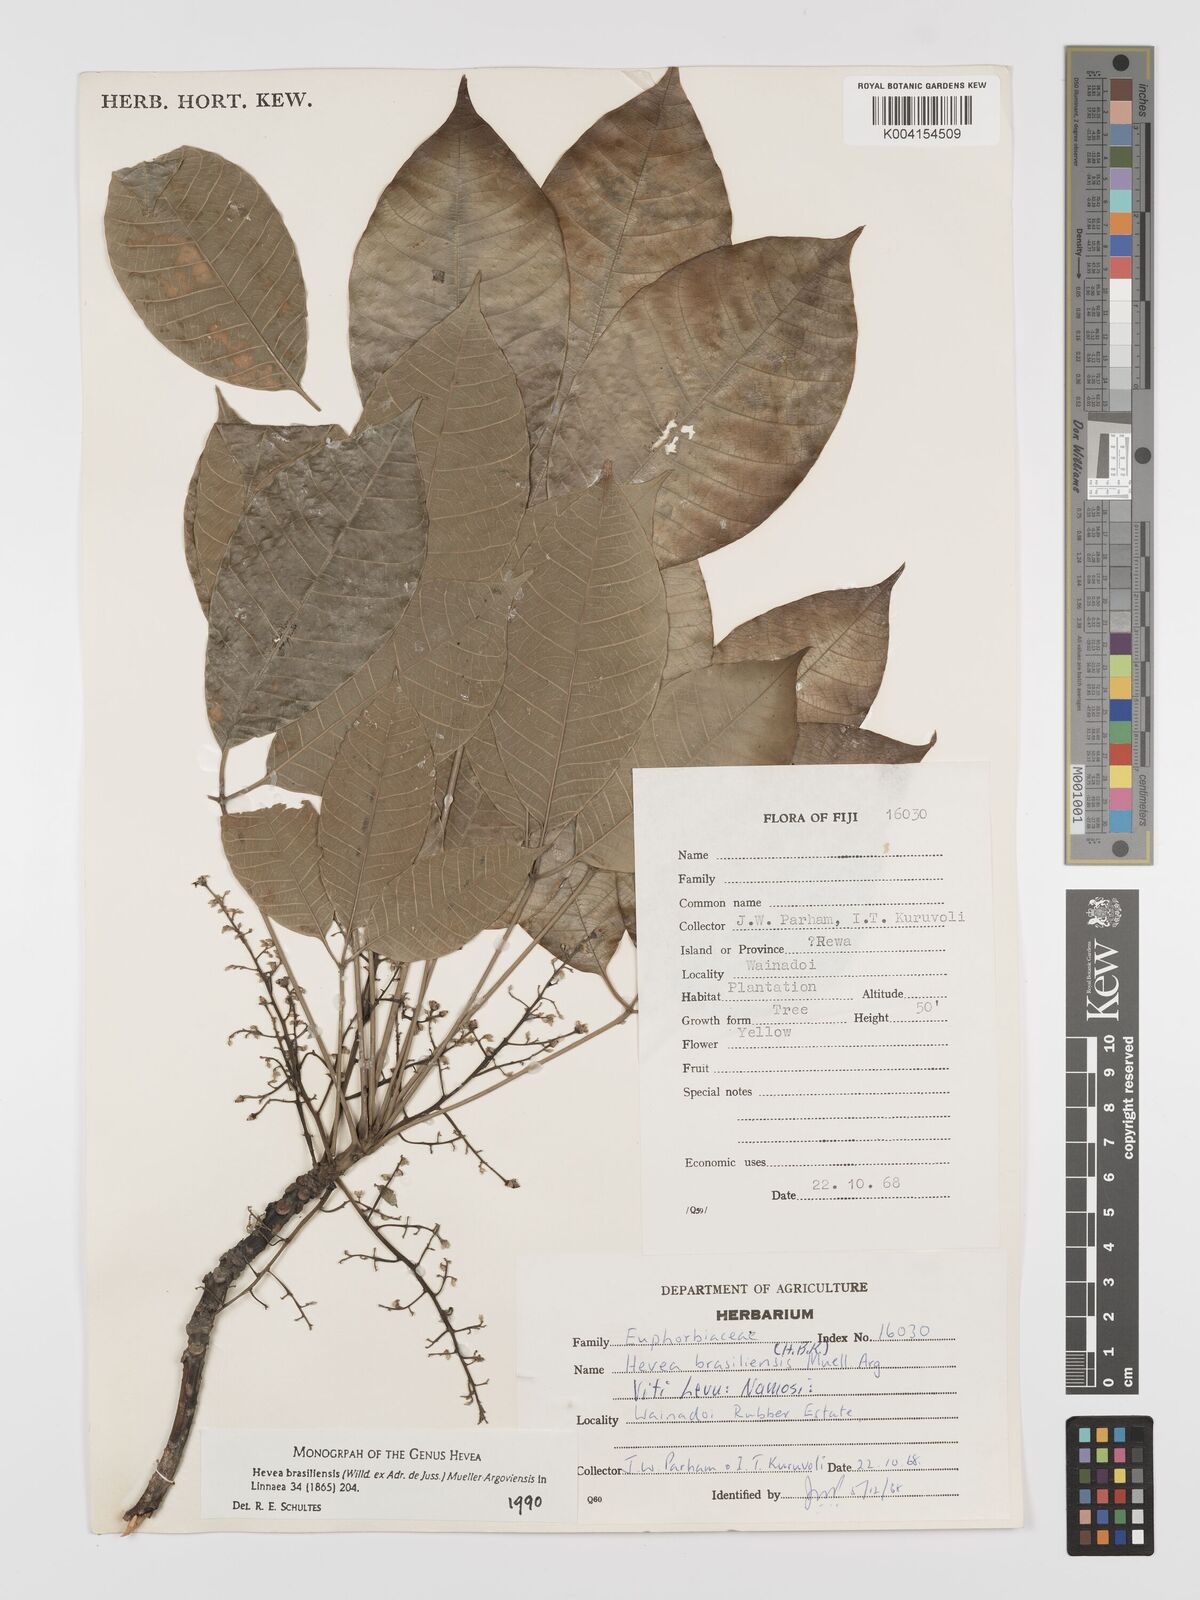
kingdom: Plantae
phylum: Tracheophyta
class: Magnoliopsida
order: Malpighiales
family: Euphorbiaceae
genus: Hevea
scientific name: Hevea brasiliensis
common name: Natural rubber
